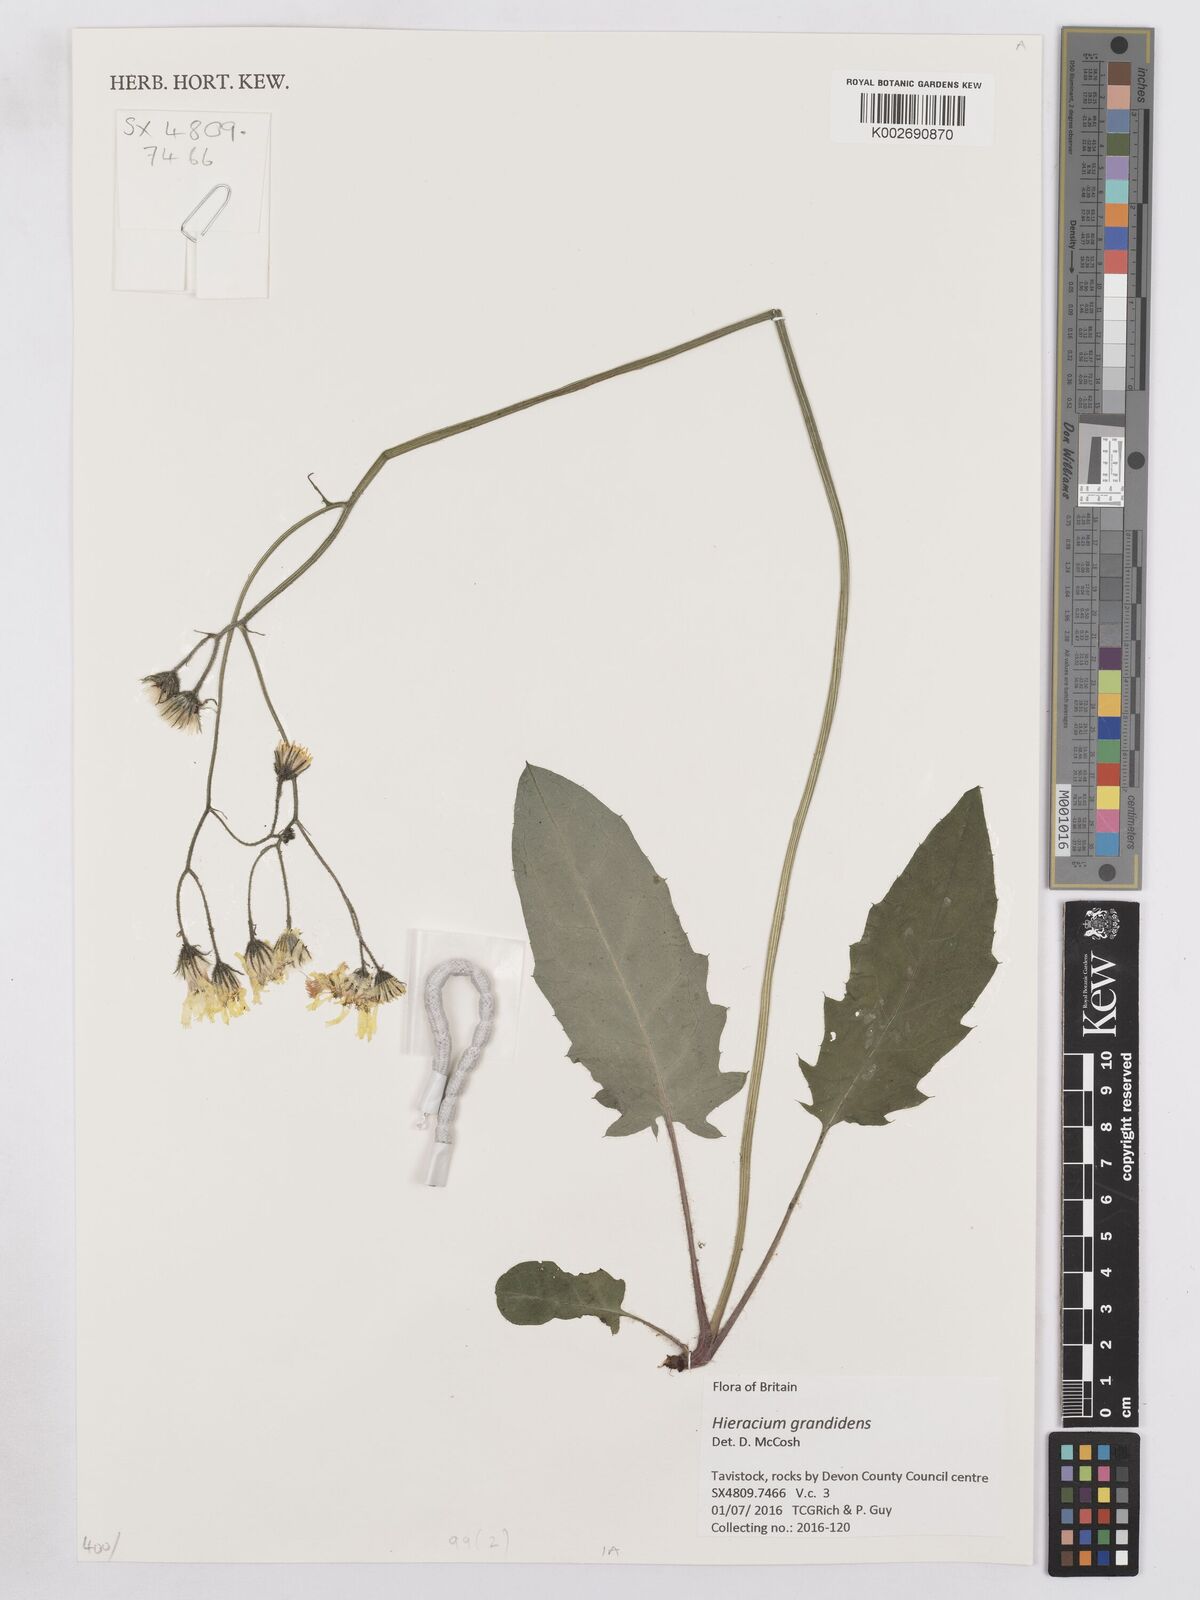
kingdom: Plantae
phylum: Tracheophyta
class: Magnoliopsida
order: Asterales
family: Asteraceae
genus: Hieracium
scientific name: Hieracium murorum
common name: Wall hawkweed
